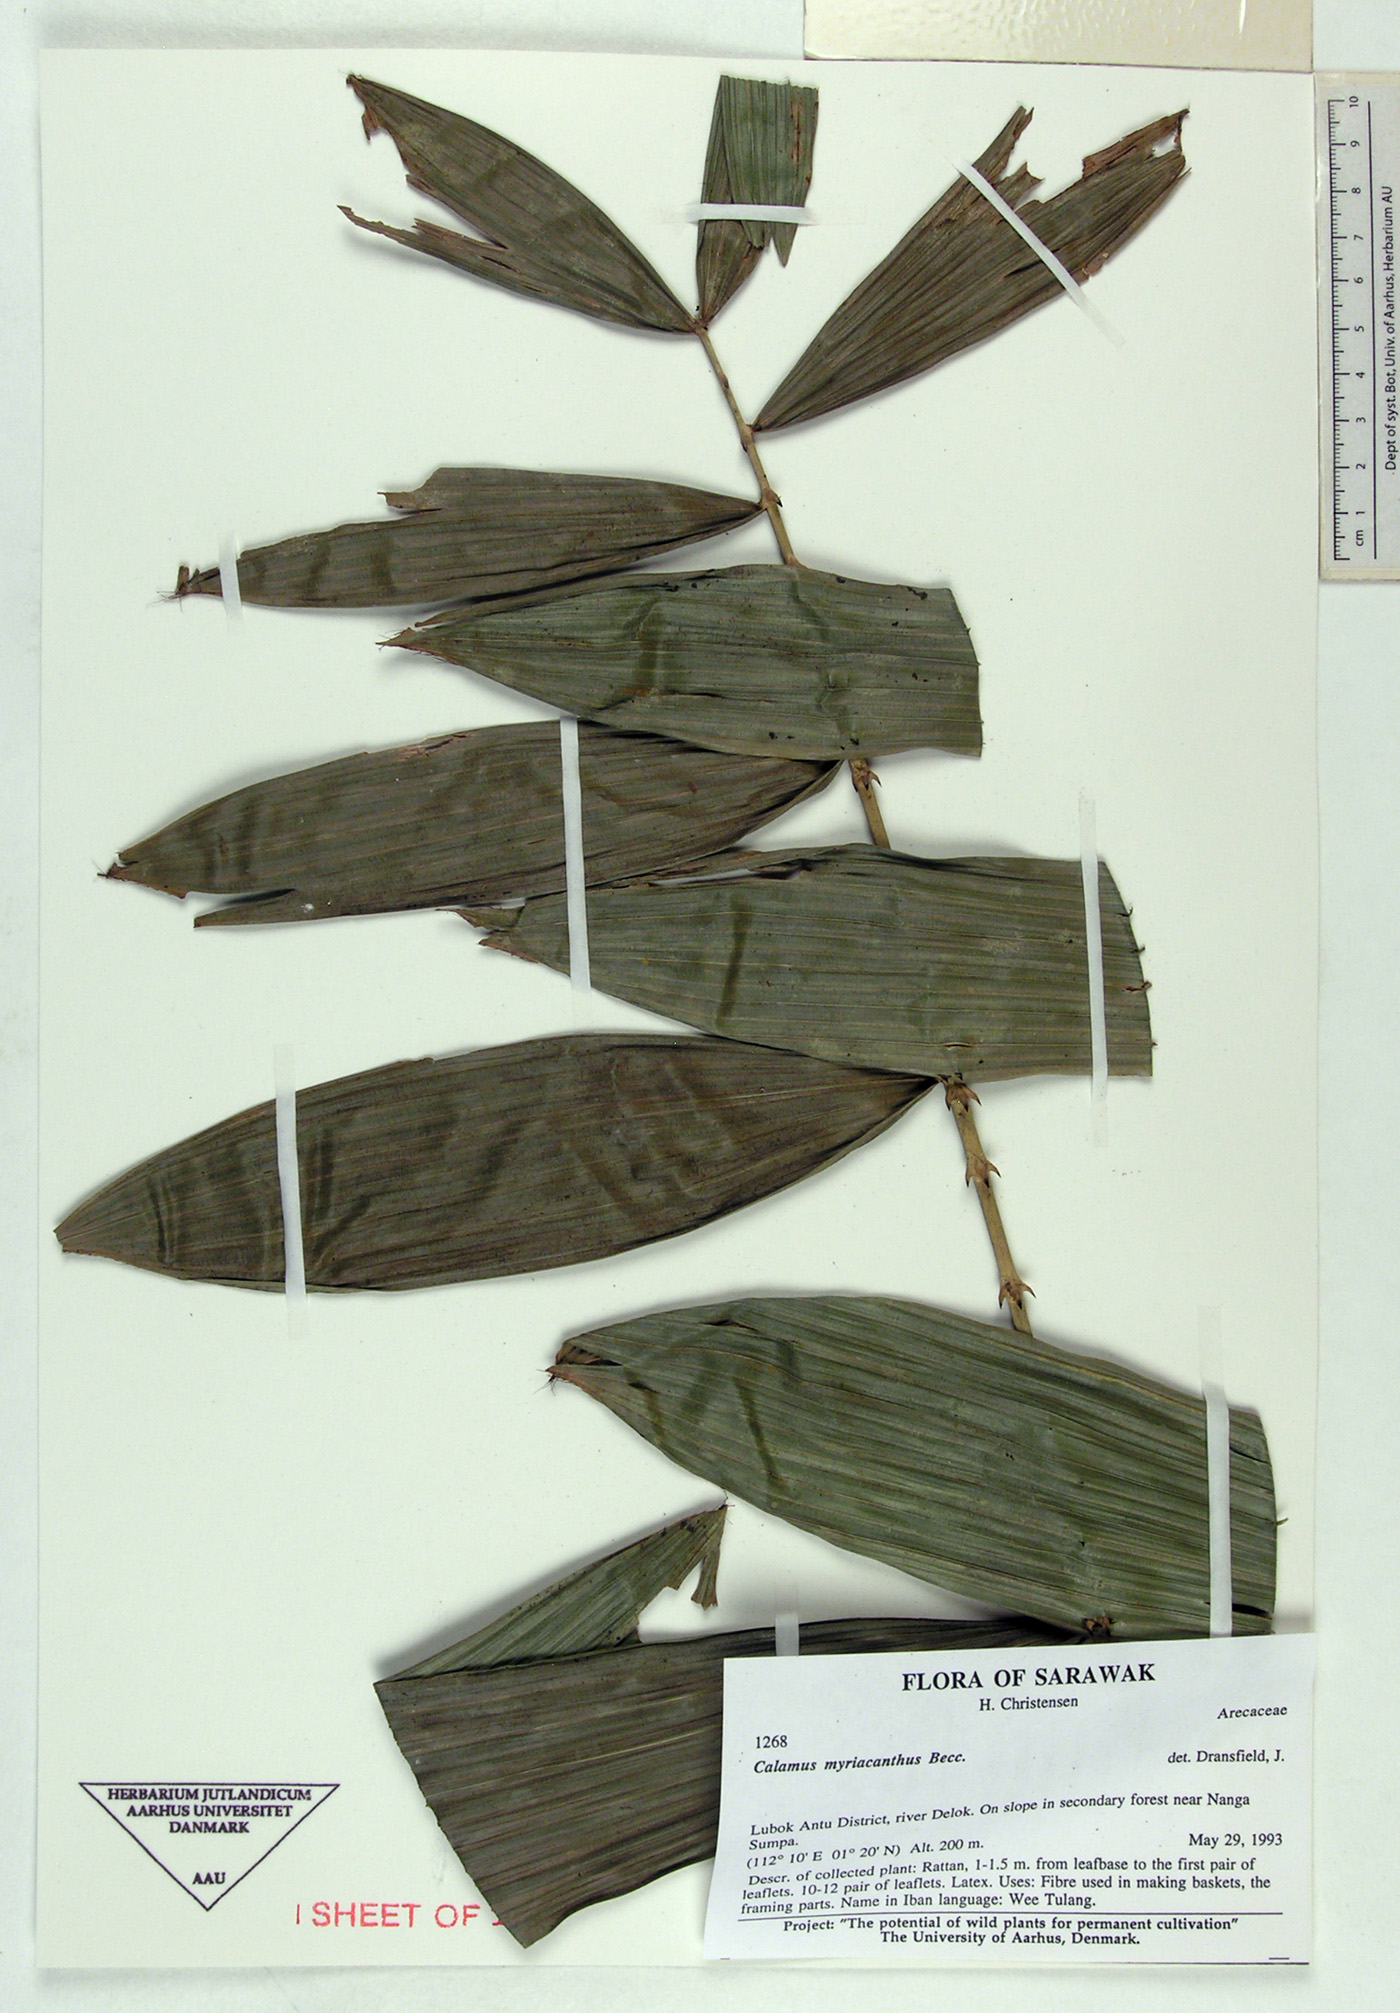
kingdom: Plantae
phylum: Tracheophyta
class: Liliopsida
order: Arecales
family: Arecaceae
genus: Calamus
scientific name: Calamus myriacanthus
